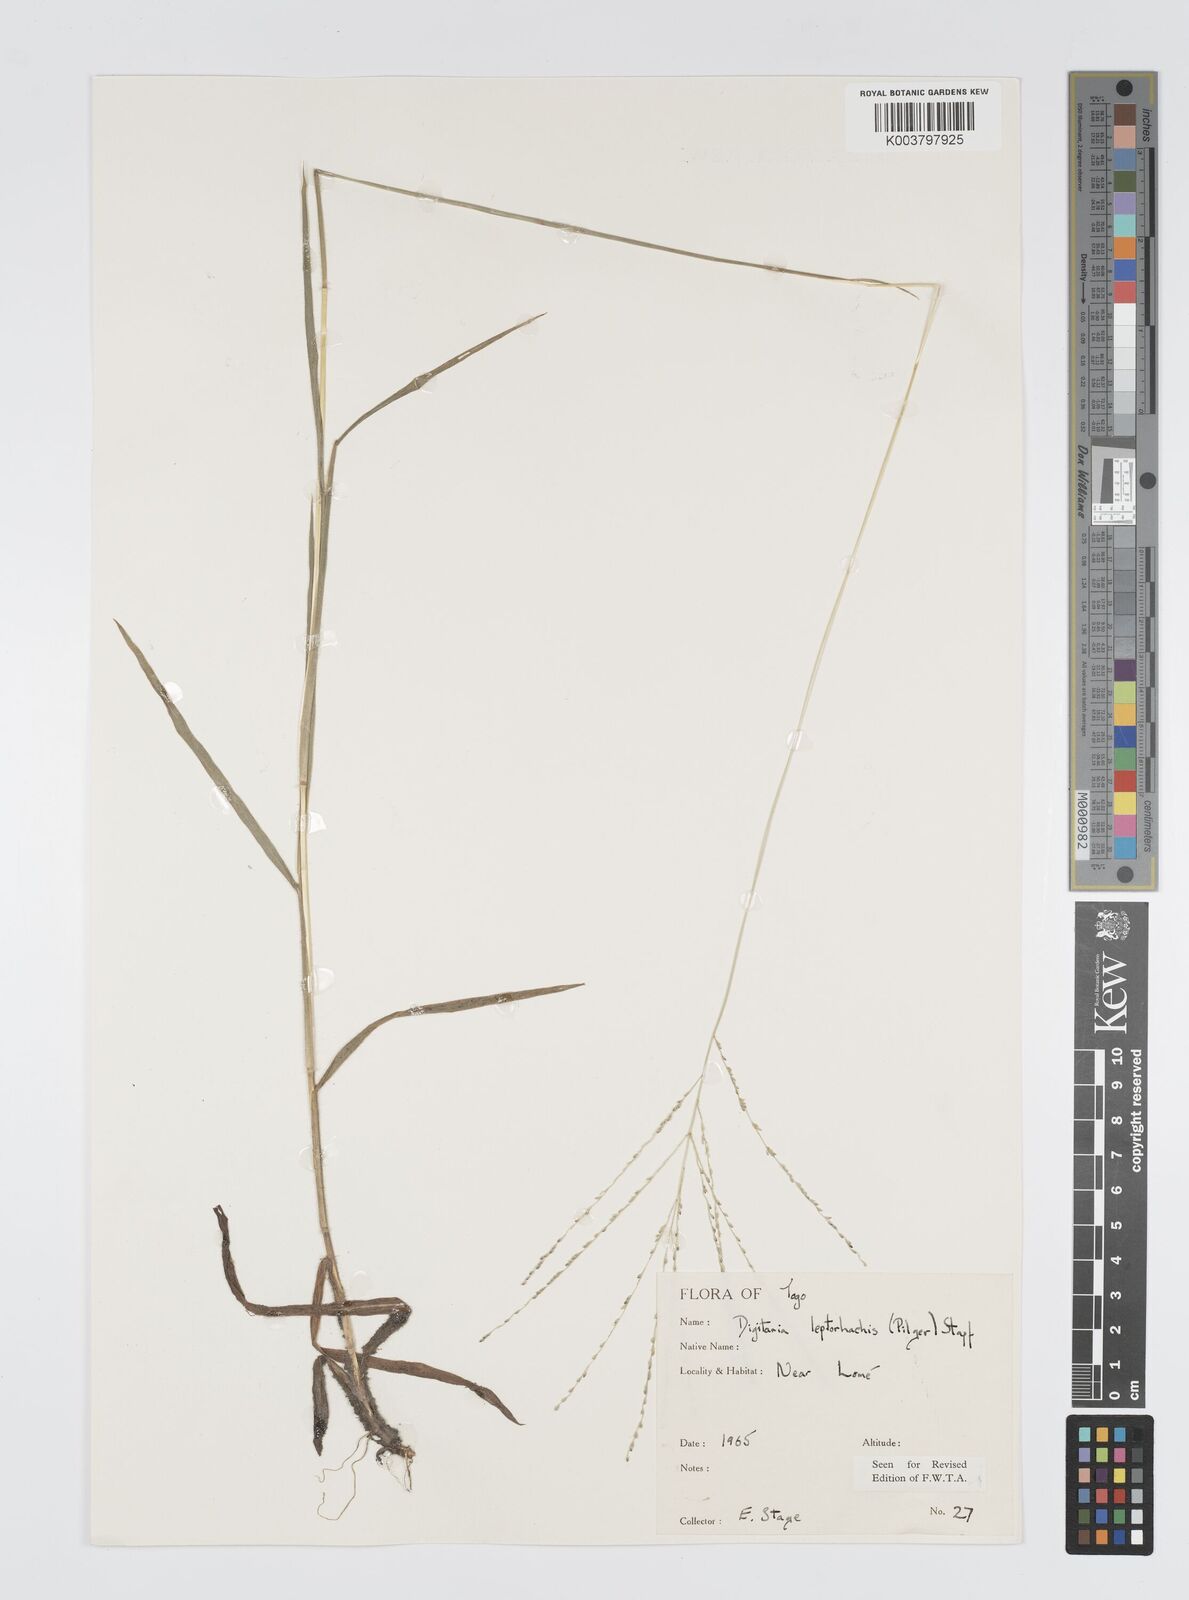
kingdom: Plantae
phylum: Tracheophyta
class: Liliopsida
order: Poales
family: Poaceae
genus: Digitaria
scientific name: Digitaria leptorhachis
